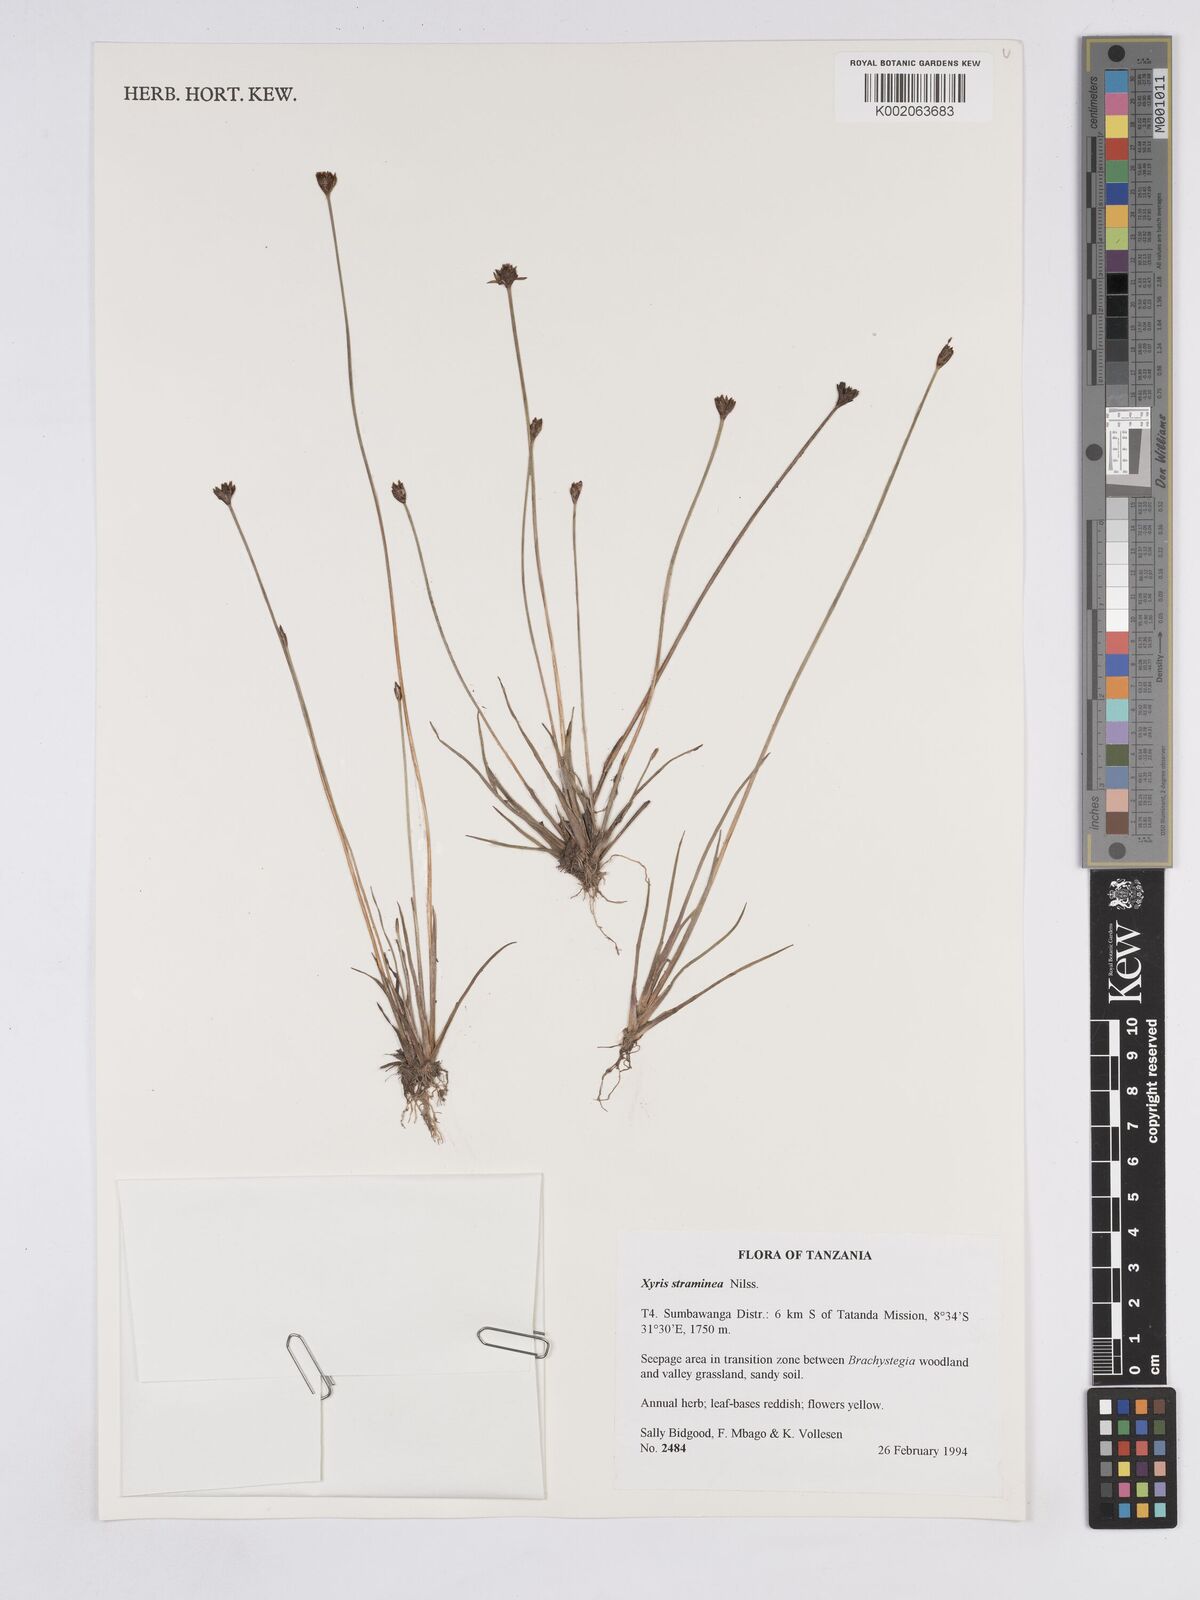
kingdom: Plantae
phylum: Tracheophyta
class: Liliopsida
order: Poales
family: Xyridaceae
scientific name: Xyridaceae
